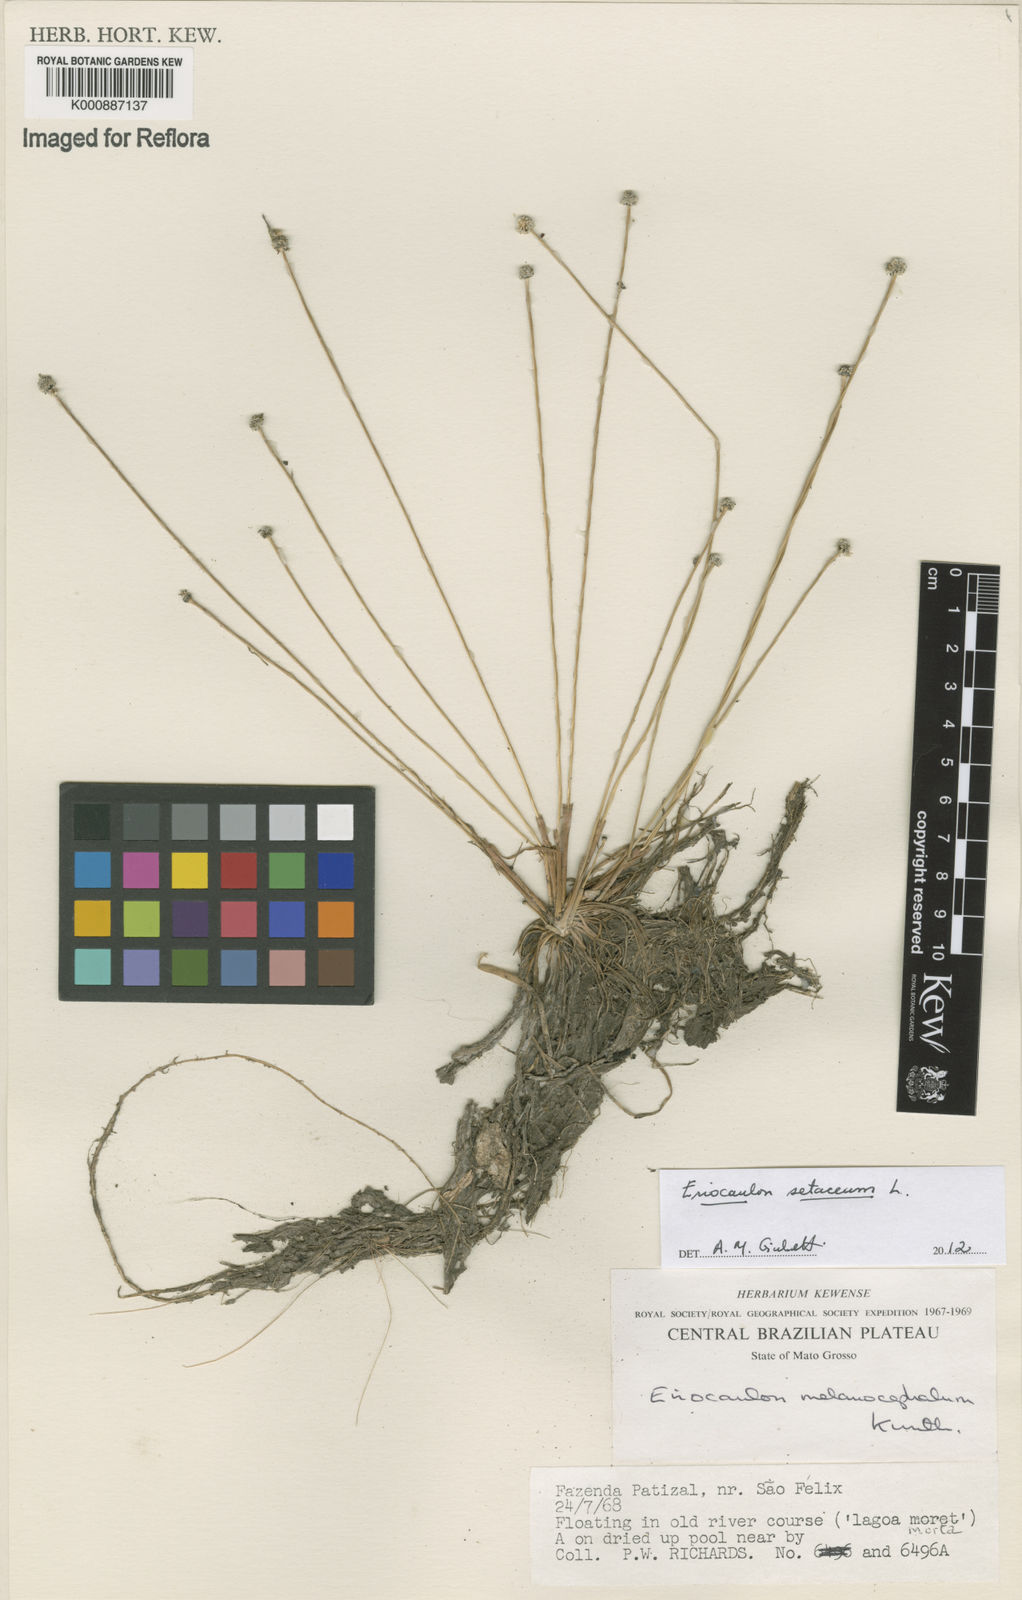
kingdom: Plantae
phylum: Tracheophyta
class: Liliopsida
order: Poales
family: Eriocaulaceae
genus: Eriocaulon
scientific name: Eriocaulon setaceum
